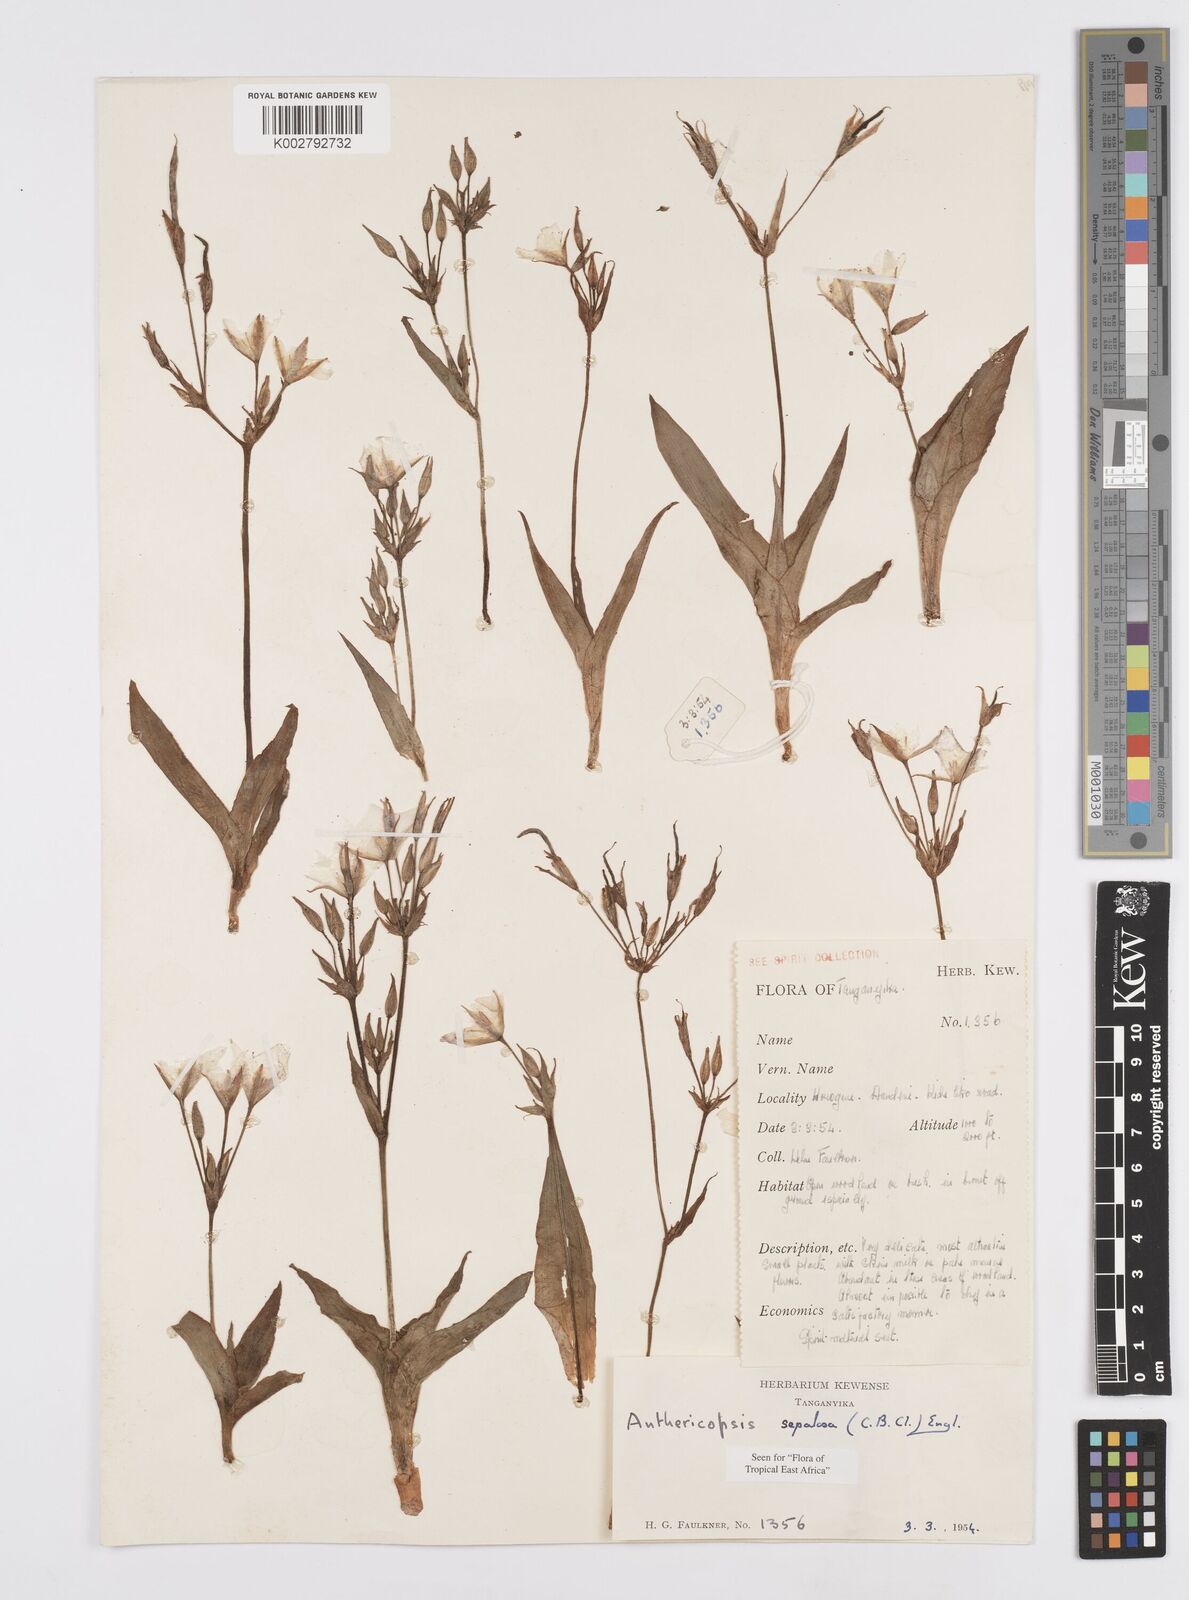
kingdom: Plantae
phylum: Tracheophyta
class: Liliopsida
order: Commelinales
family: Commelinaceae
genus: Anthericopsis
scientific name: Anthericopsis sepalosa
